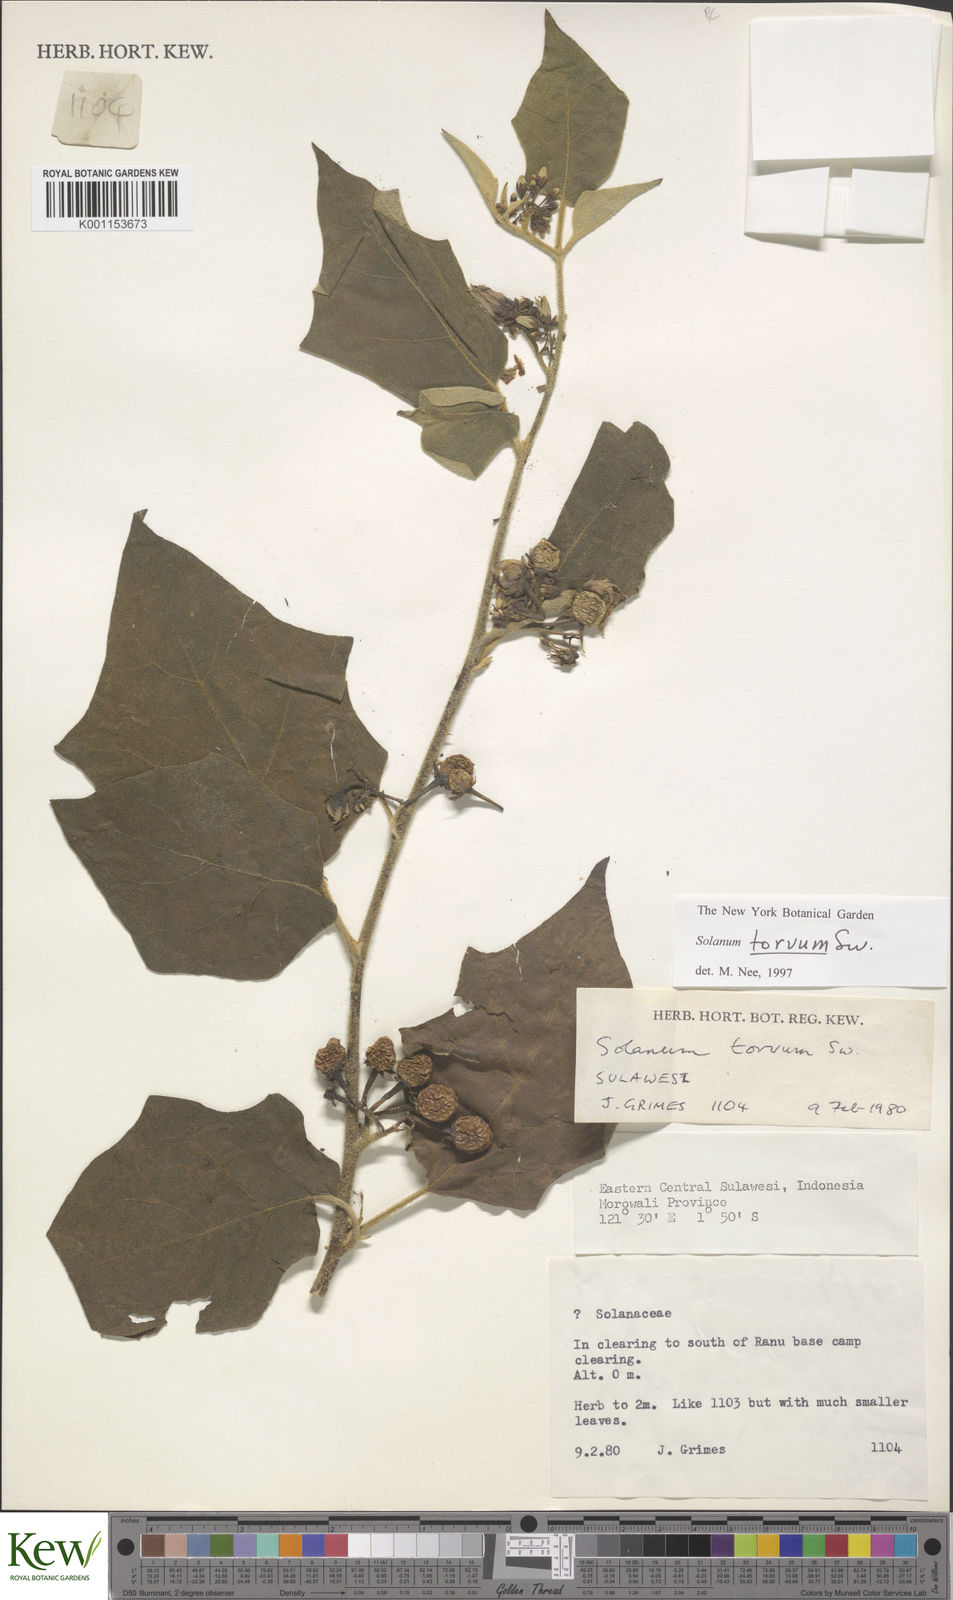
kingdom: Plantae
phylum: Tracheophyta
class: Magnoliopsida
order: Solanales
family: Solanaceae
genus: Solanum
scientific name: Solanum torvum
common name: Turkey berry
